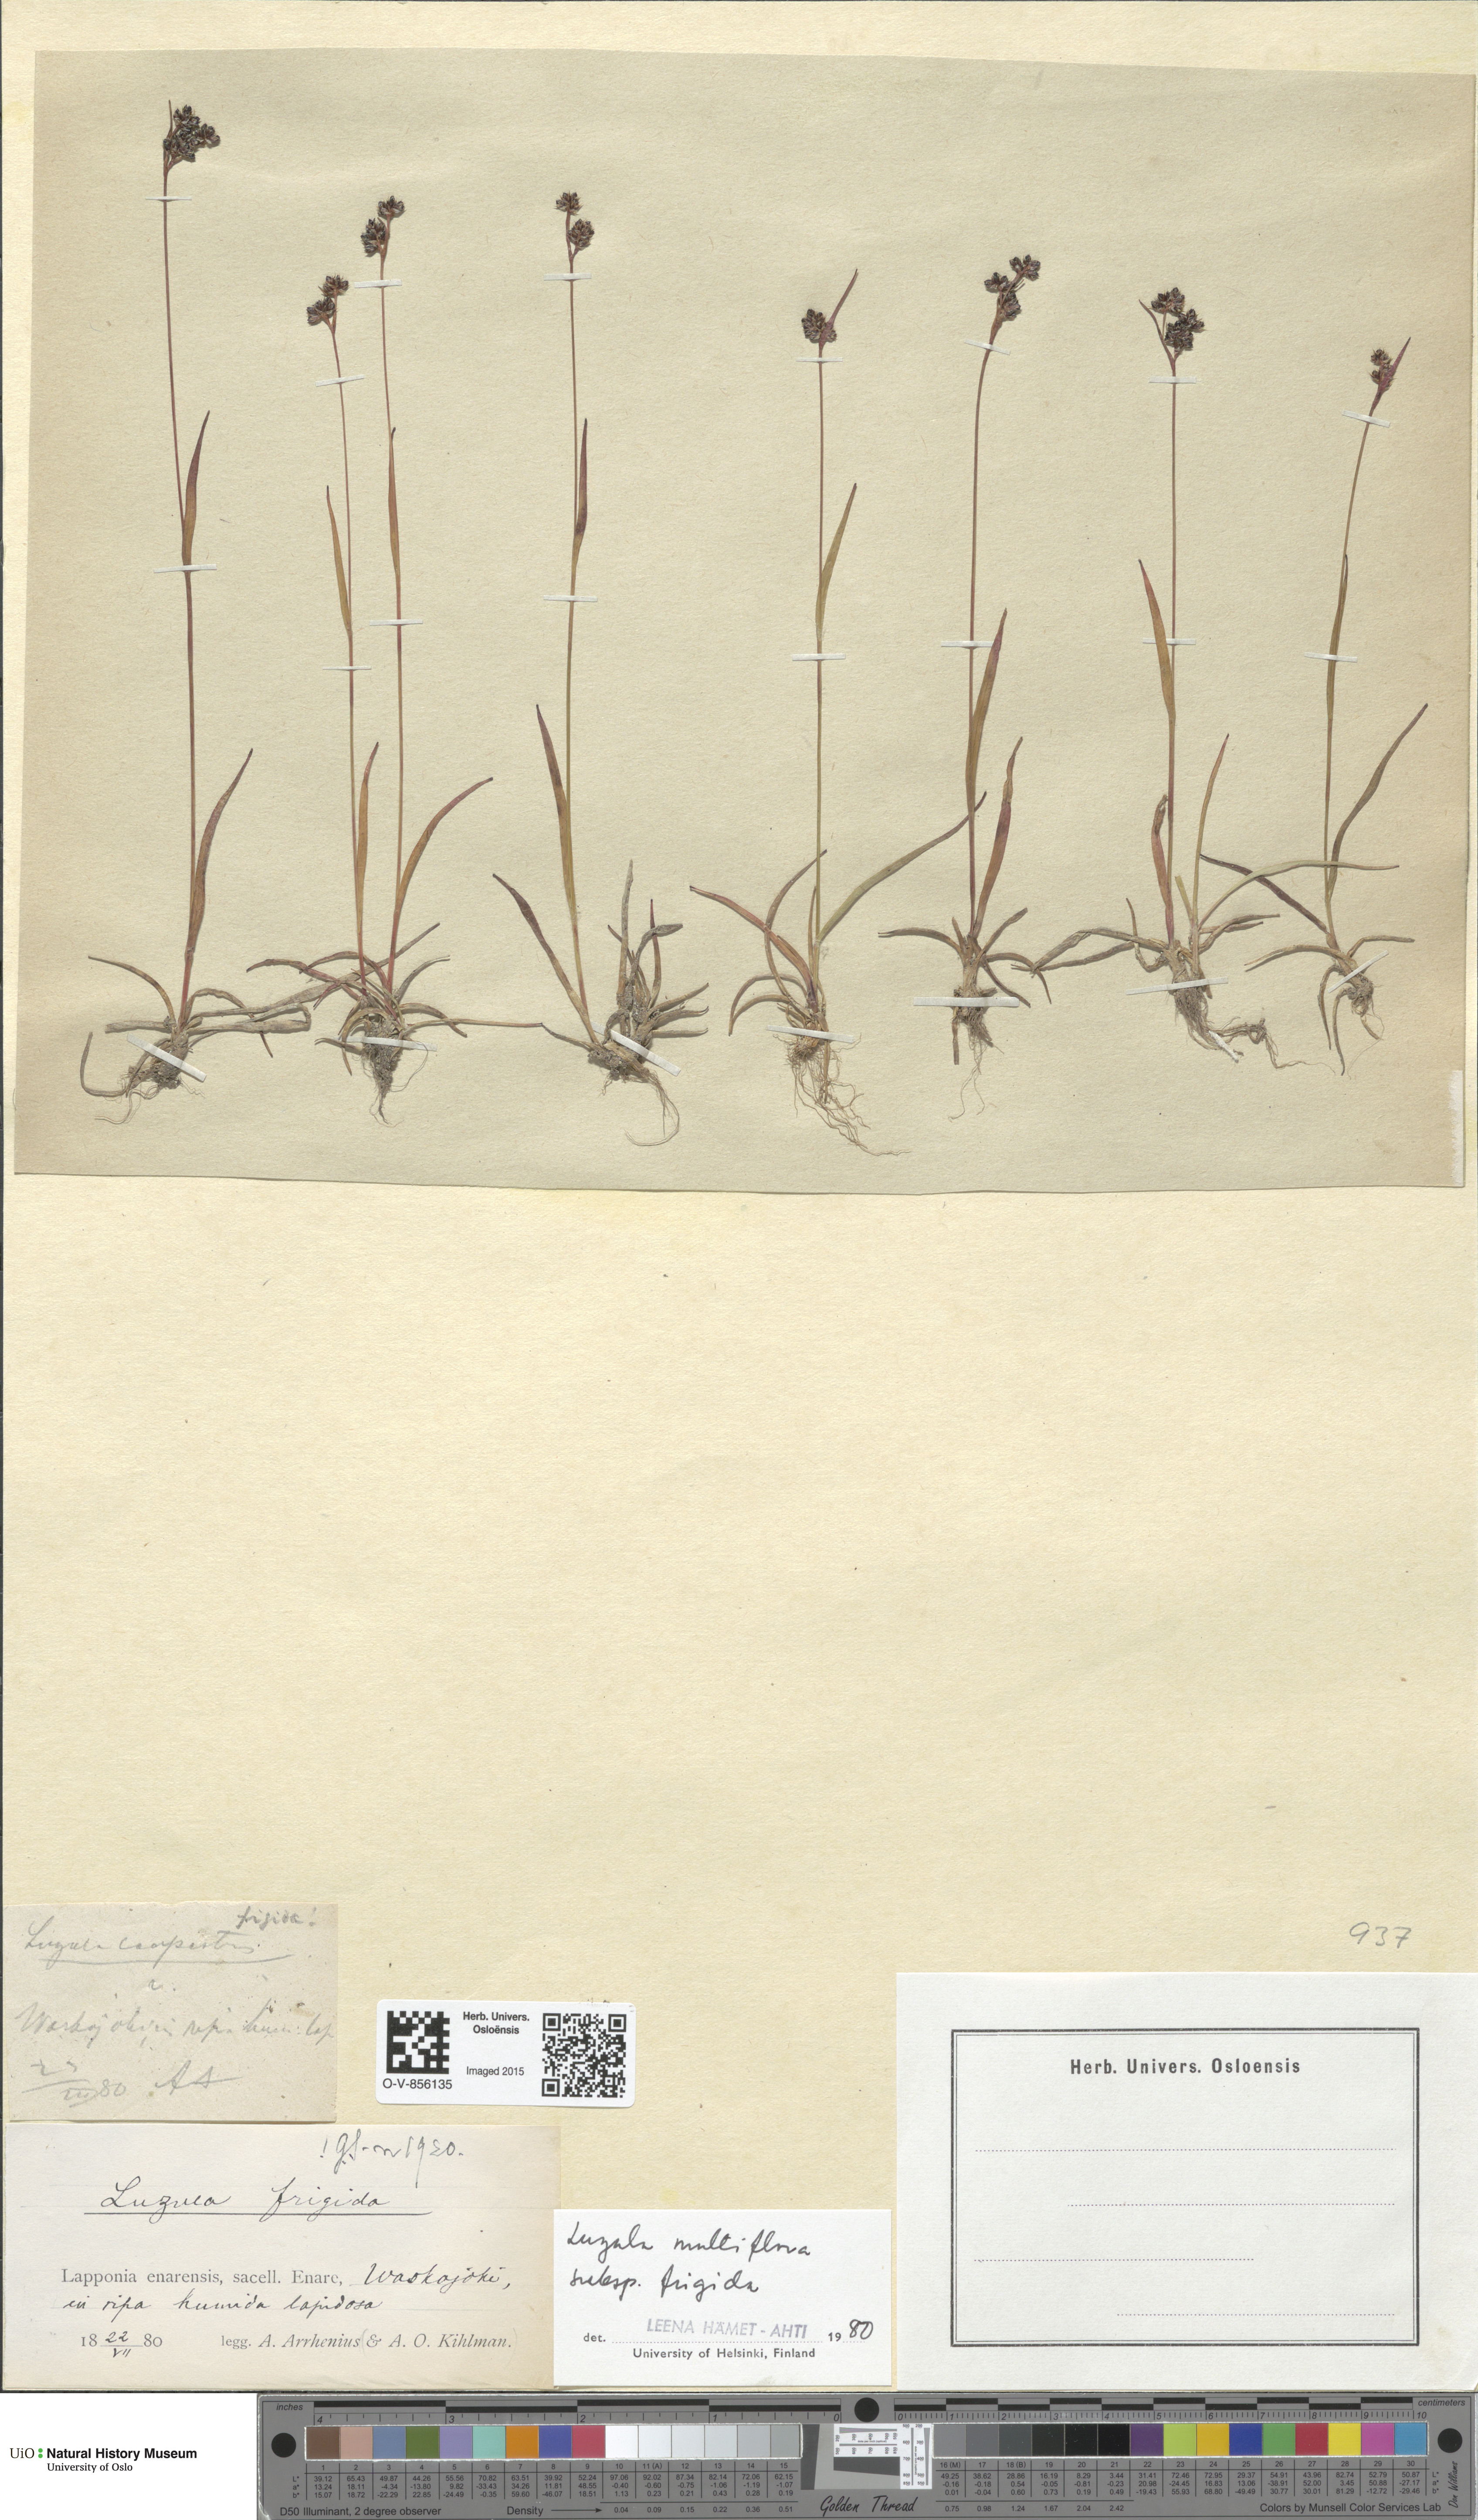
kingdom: Plantae
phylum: Tracheophyta
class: Liliopsida
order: Poales
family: Juncaceae
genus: Luzula
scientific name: Luzula multiflora
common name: Heath wood-rush
